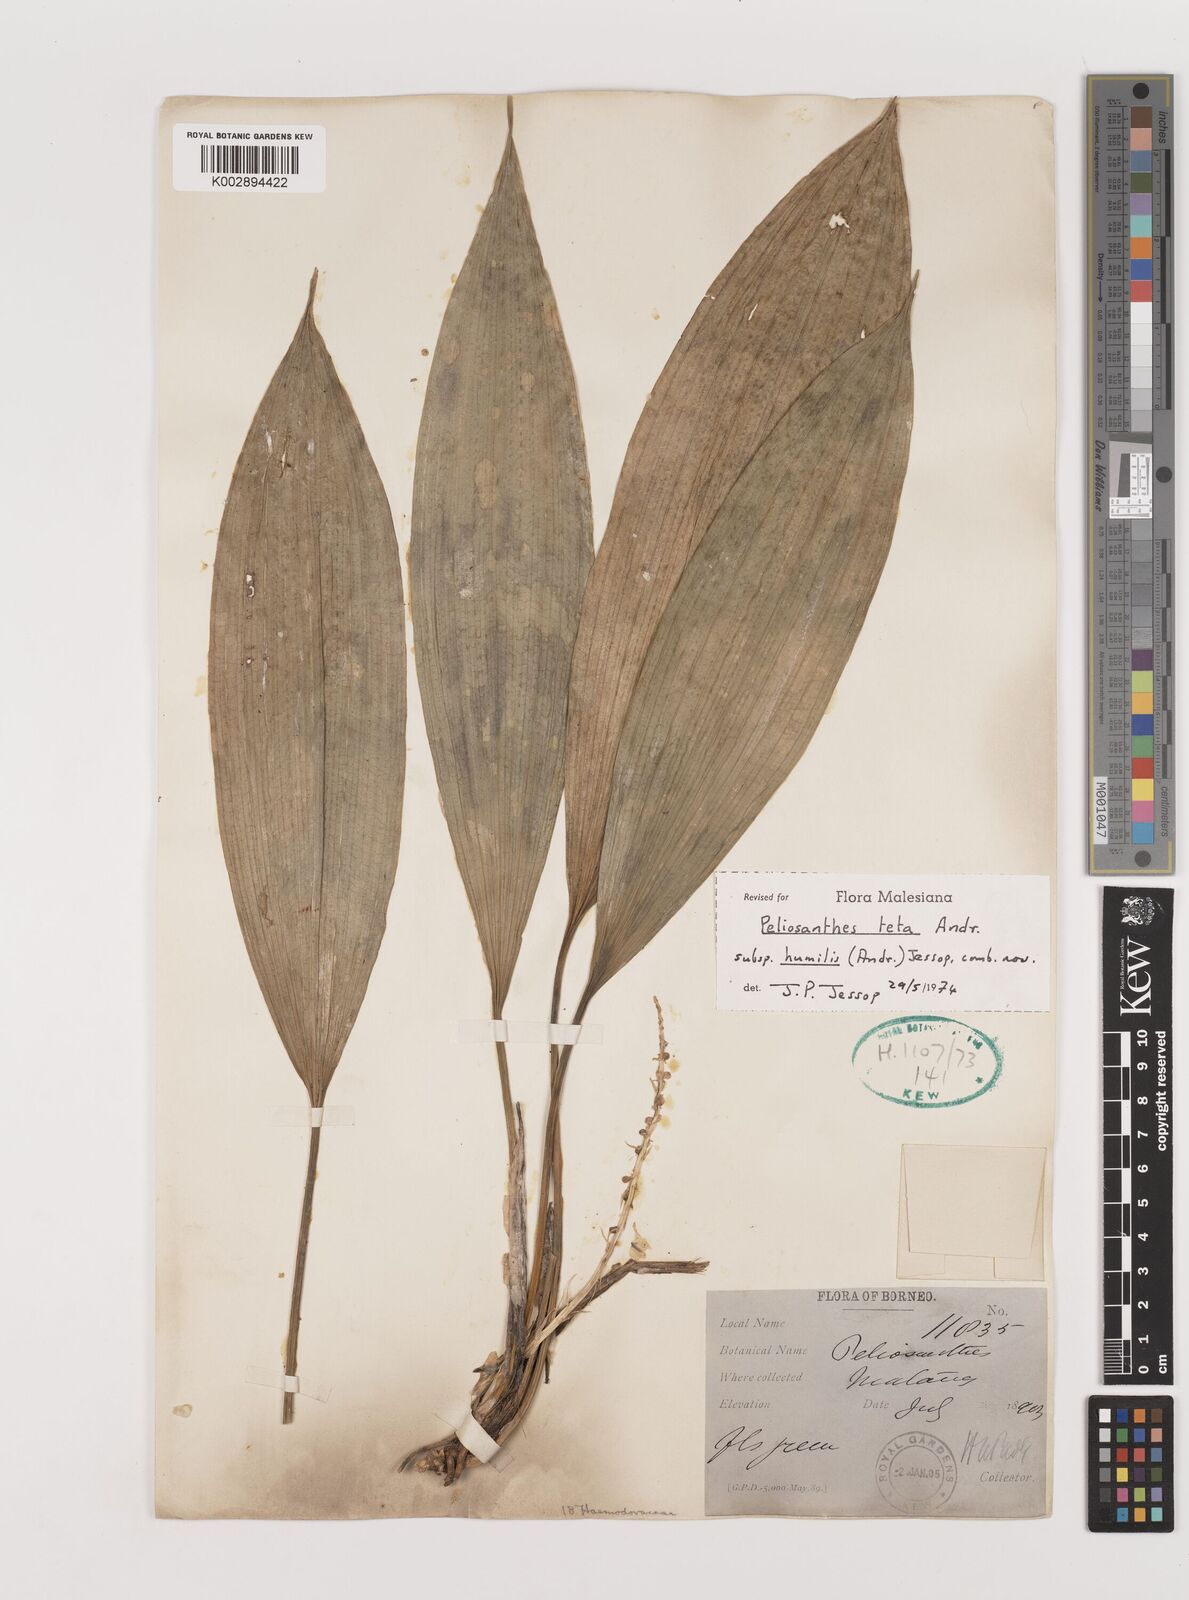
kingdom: Plantae
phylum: Tracheophyta
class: Liliopsida
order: Asparagales
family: Asparagaceae
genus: Peliosanthes
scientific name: Peliosanthes teta
